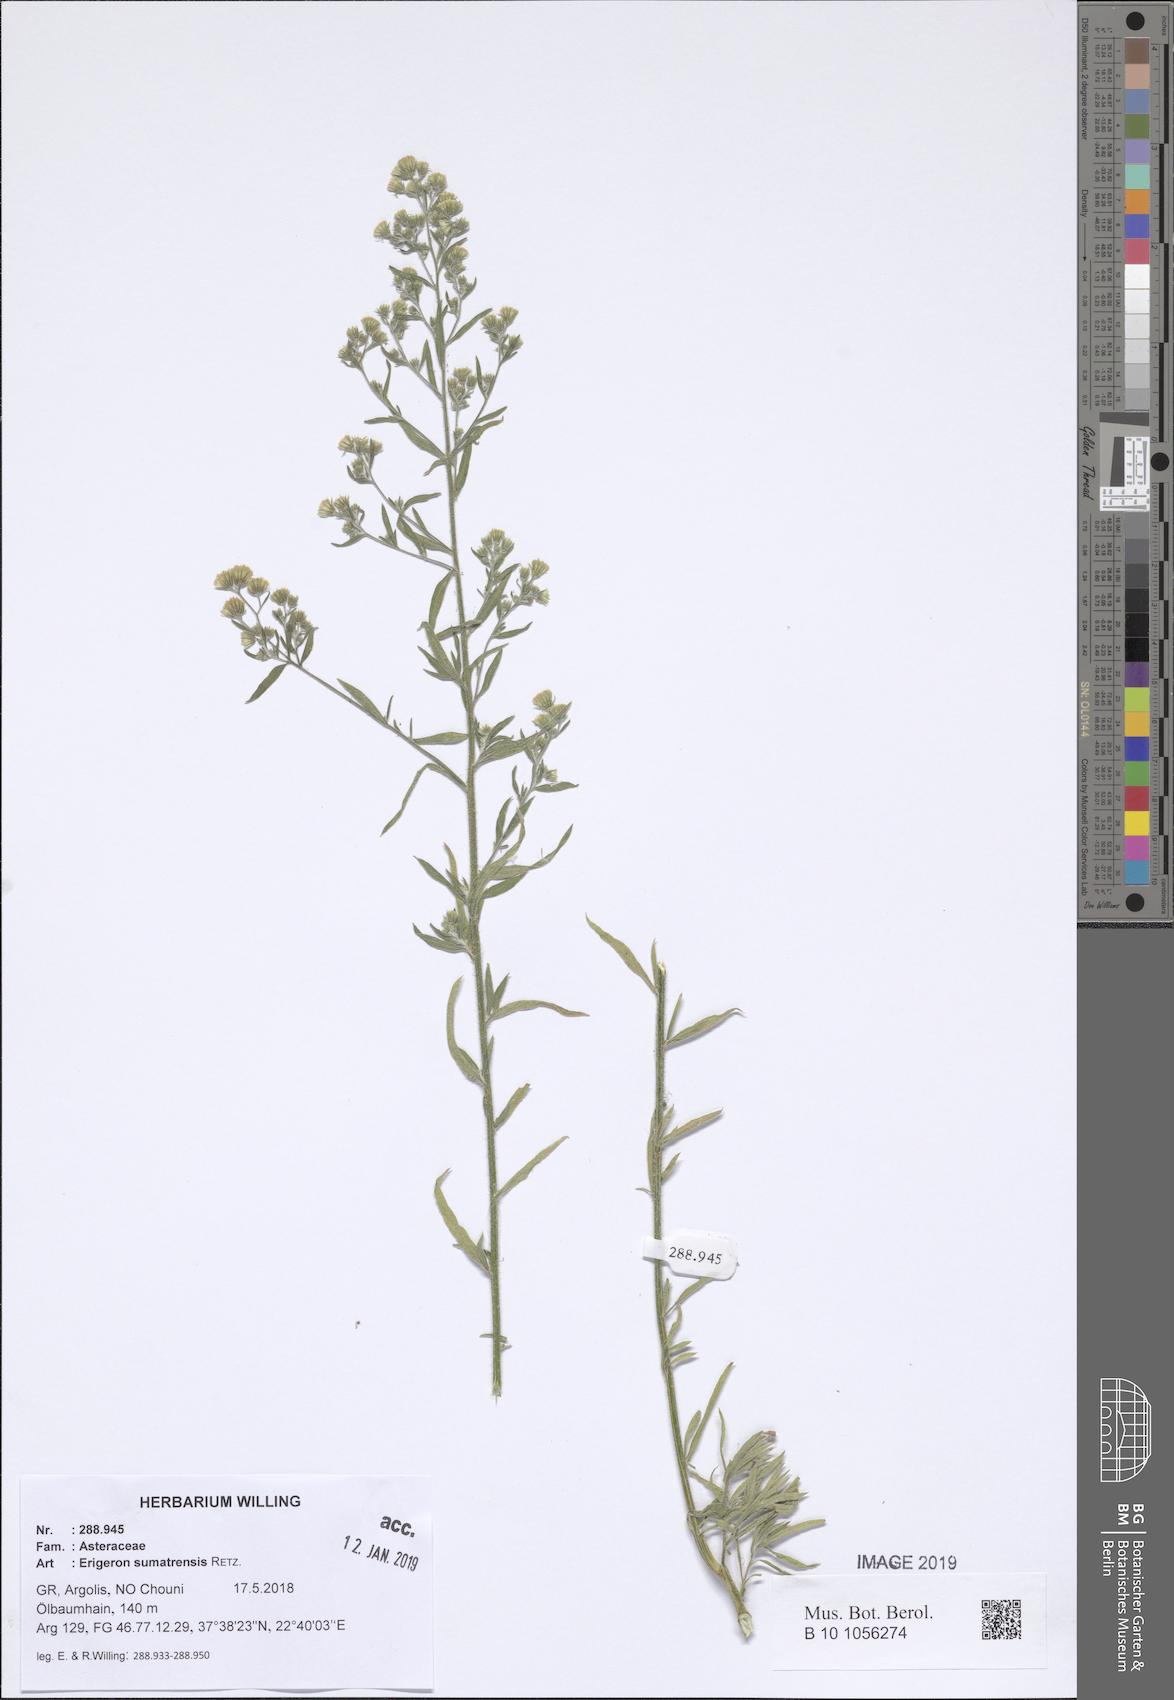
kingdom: Plantae
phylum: Tracheophyta
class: Magnoliopsida
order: Asterales
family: Asteraceae
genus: Erigeron
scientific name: Erigeron sumatrensis
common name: Daisy
